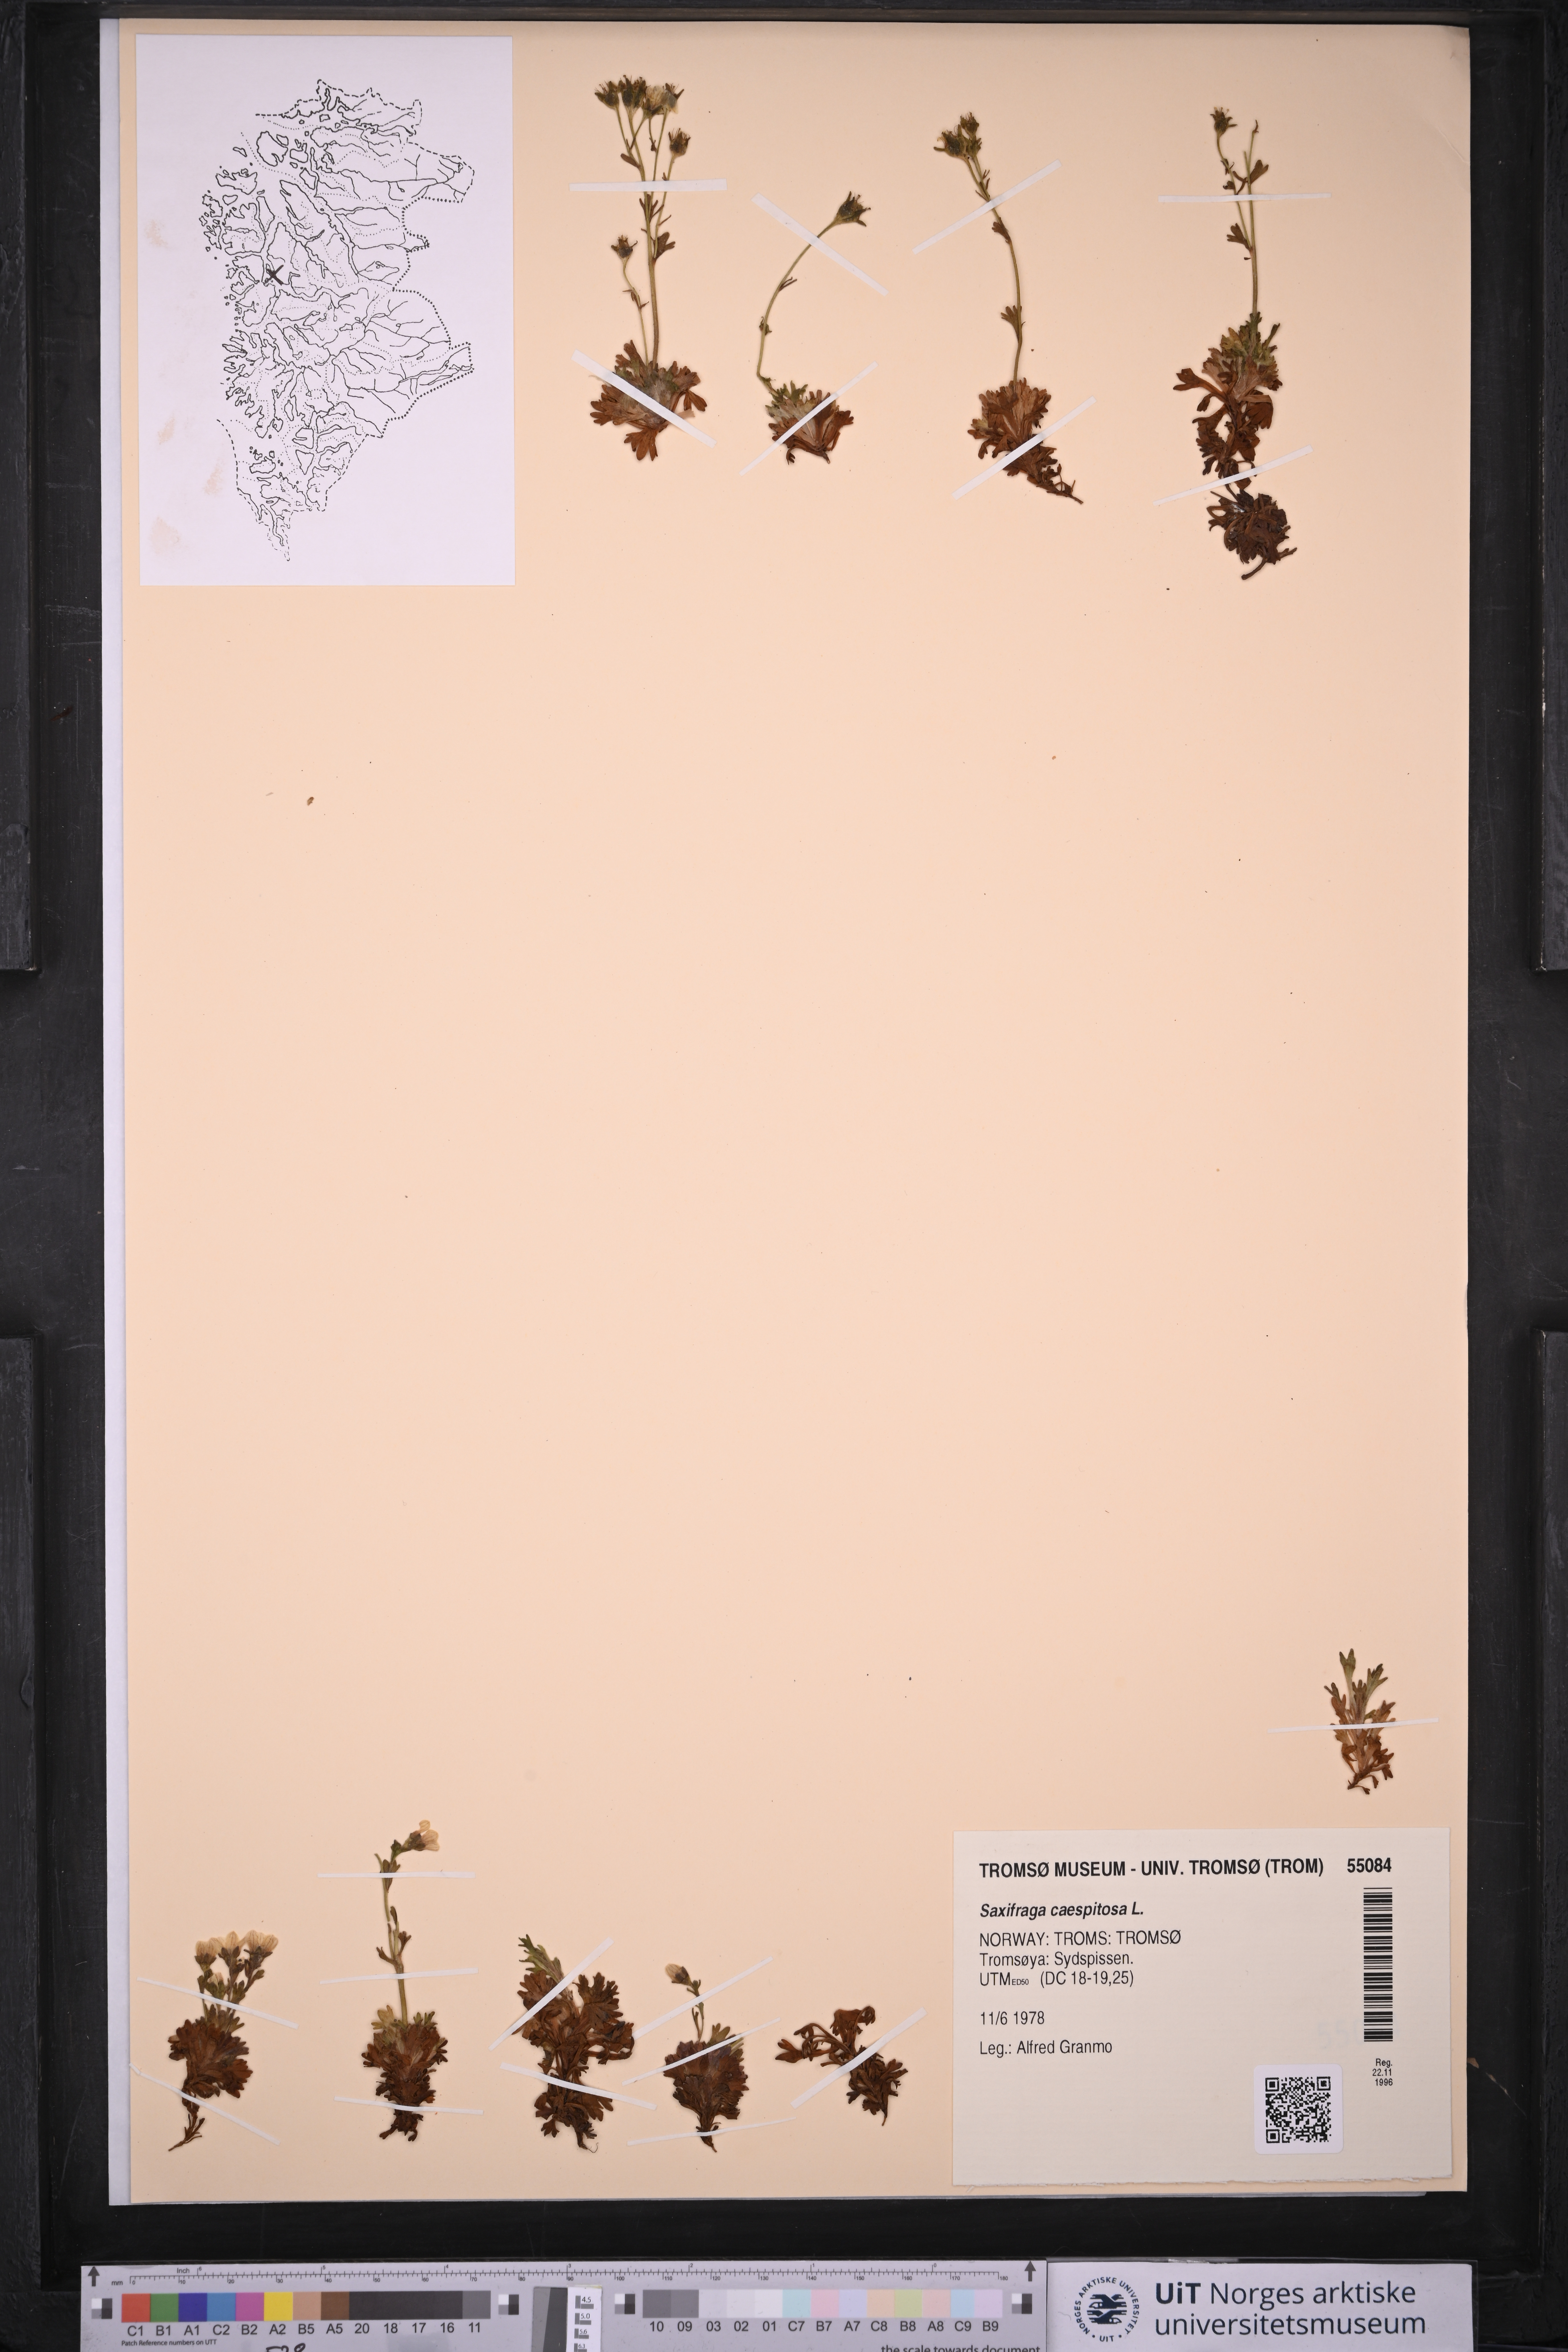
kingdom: Plantae
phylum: Tracheophyta
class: Magnoliopsida
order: Saxifragales
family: Saxifragaceae
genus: Saxifraga
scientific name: Saxifraga cespitosa
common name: Tufted saxifrage
